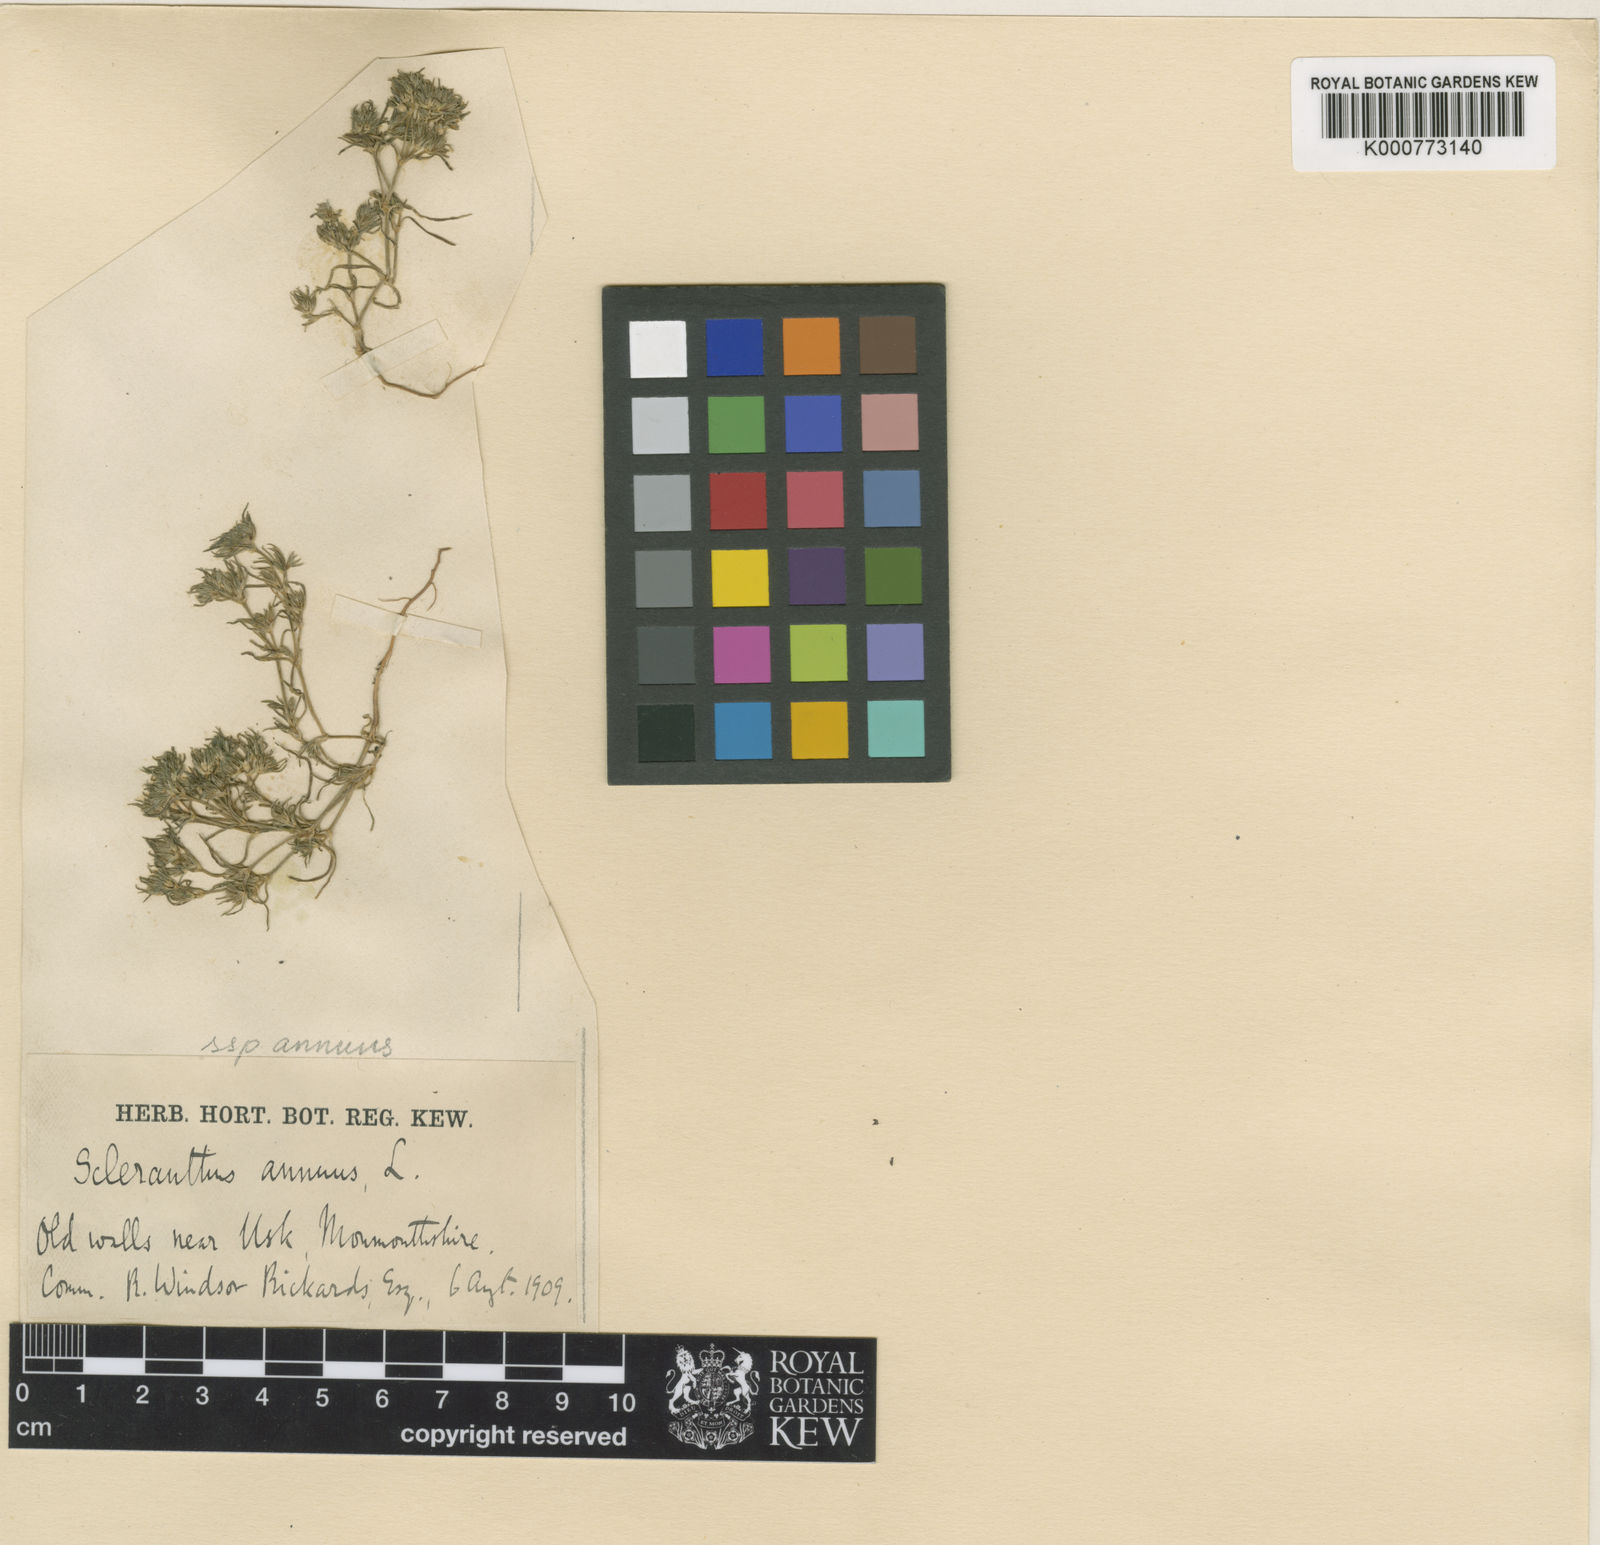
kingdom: Plantae
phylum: Tracheophyta
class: Magnoliopsida
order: Caryophyllales
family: Caryophyllaceae
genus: Scleranthus
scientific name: Scleranthus annuus
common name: Annual knawel
